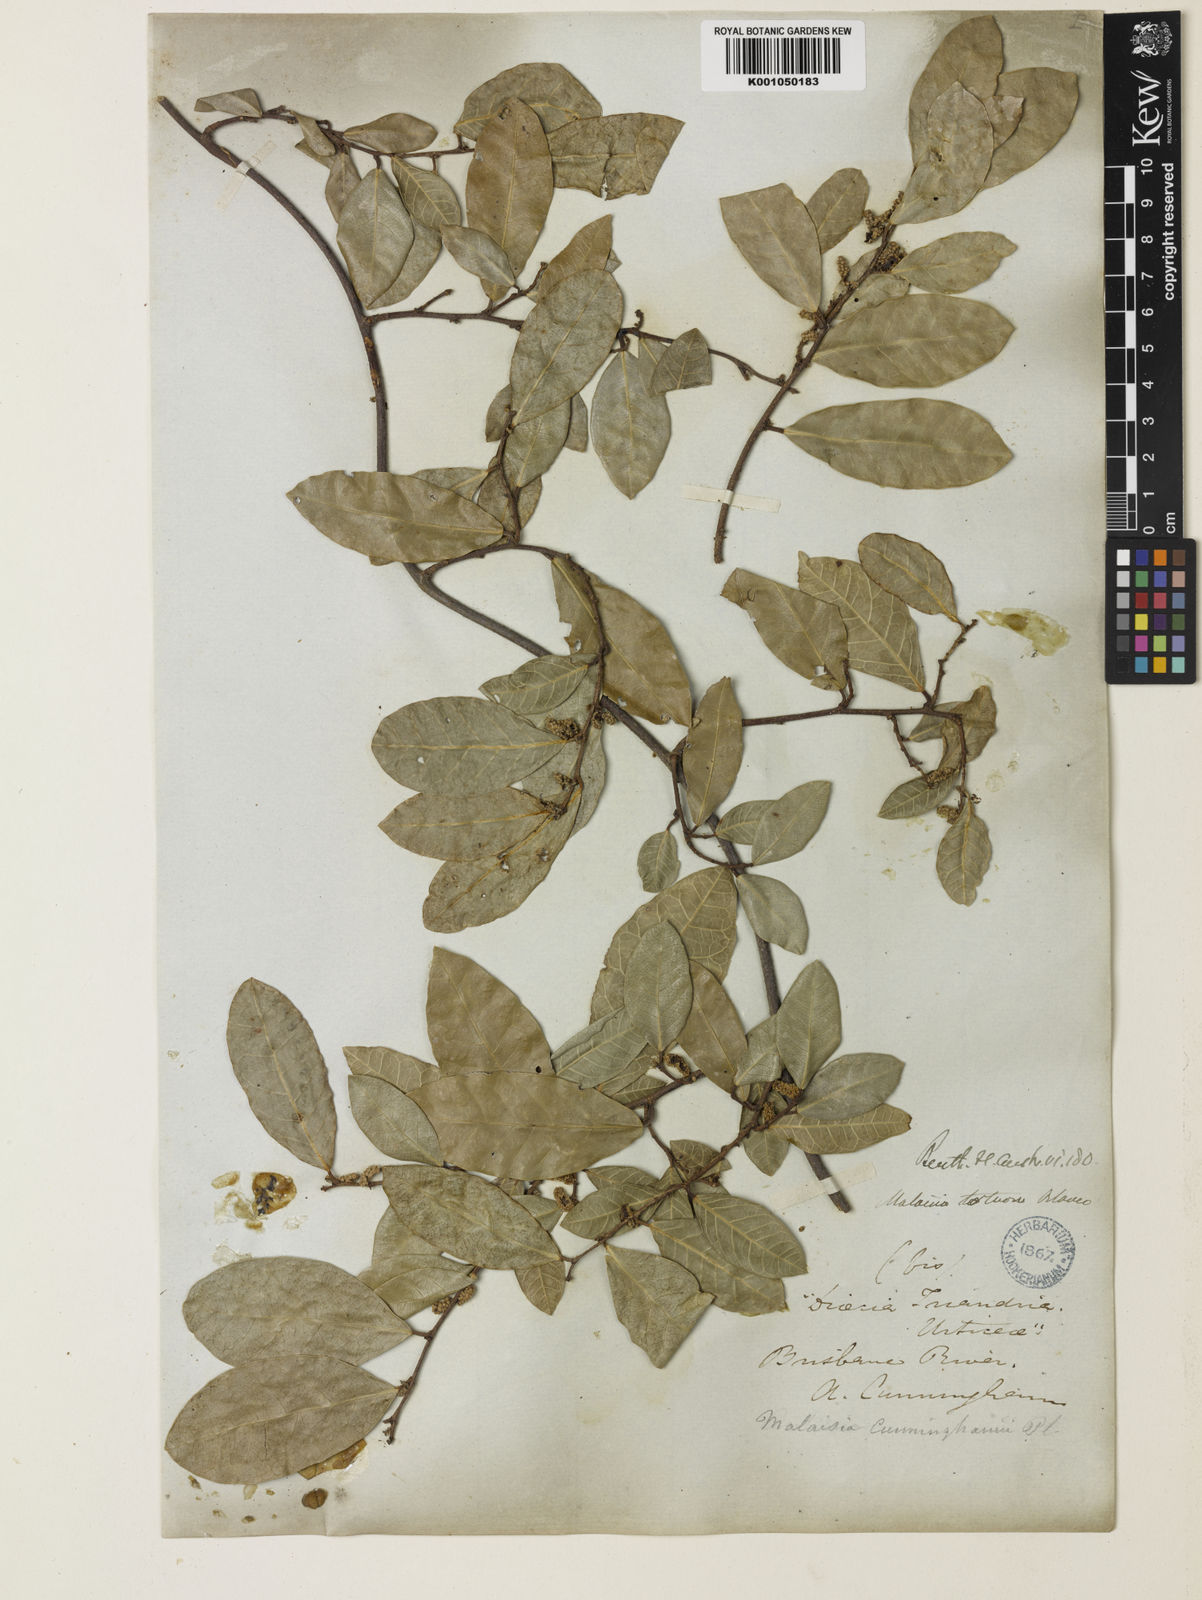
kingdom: Plantae
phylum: Tracheophyta
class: Magnoliopsida
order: Rosales
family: Moraceae
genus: Malaisia
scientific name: Malaisia scandens
